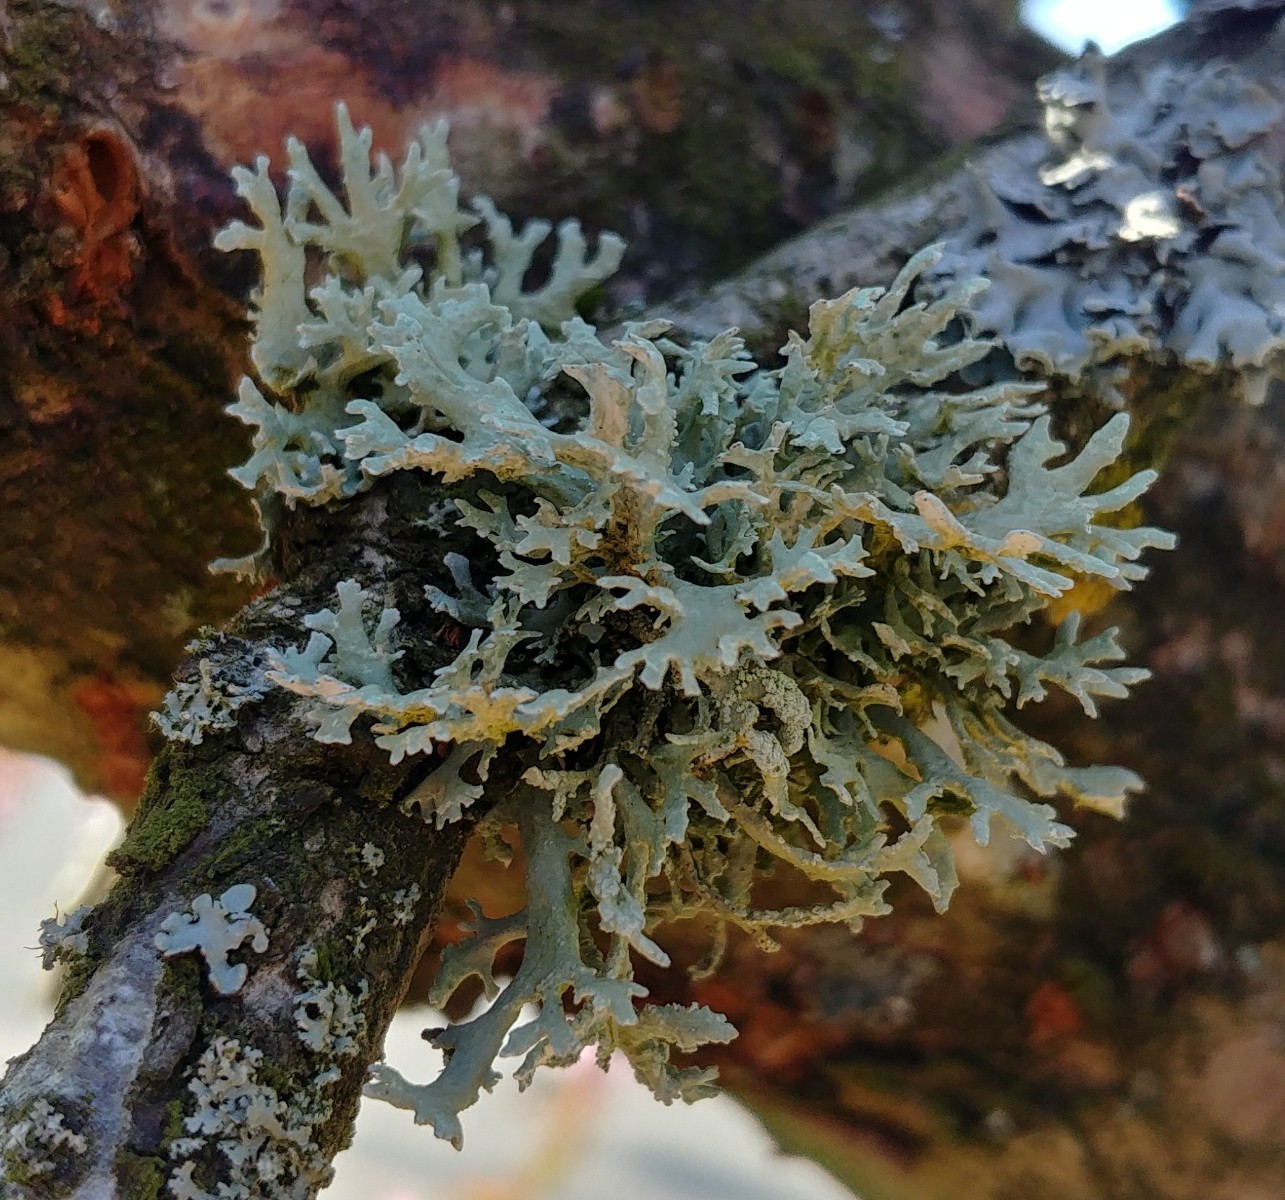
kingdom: Fungi
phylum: Ascomycota
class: Lecanoromycetes
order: Lecanorales
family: Parmeliaceae
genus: Evernia
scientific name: Evernia prunastri
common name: almindelig slåenlav
